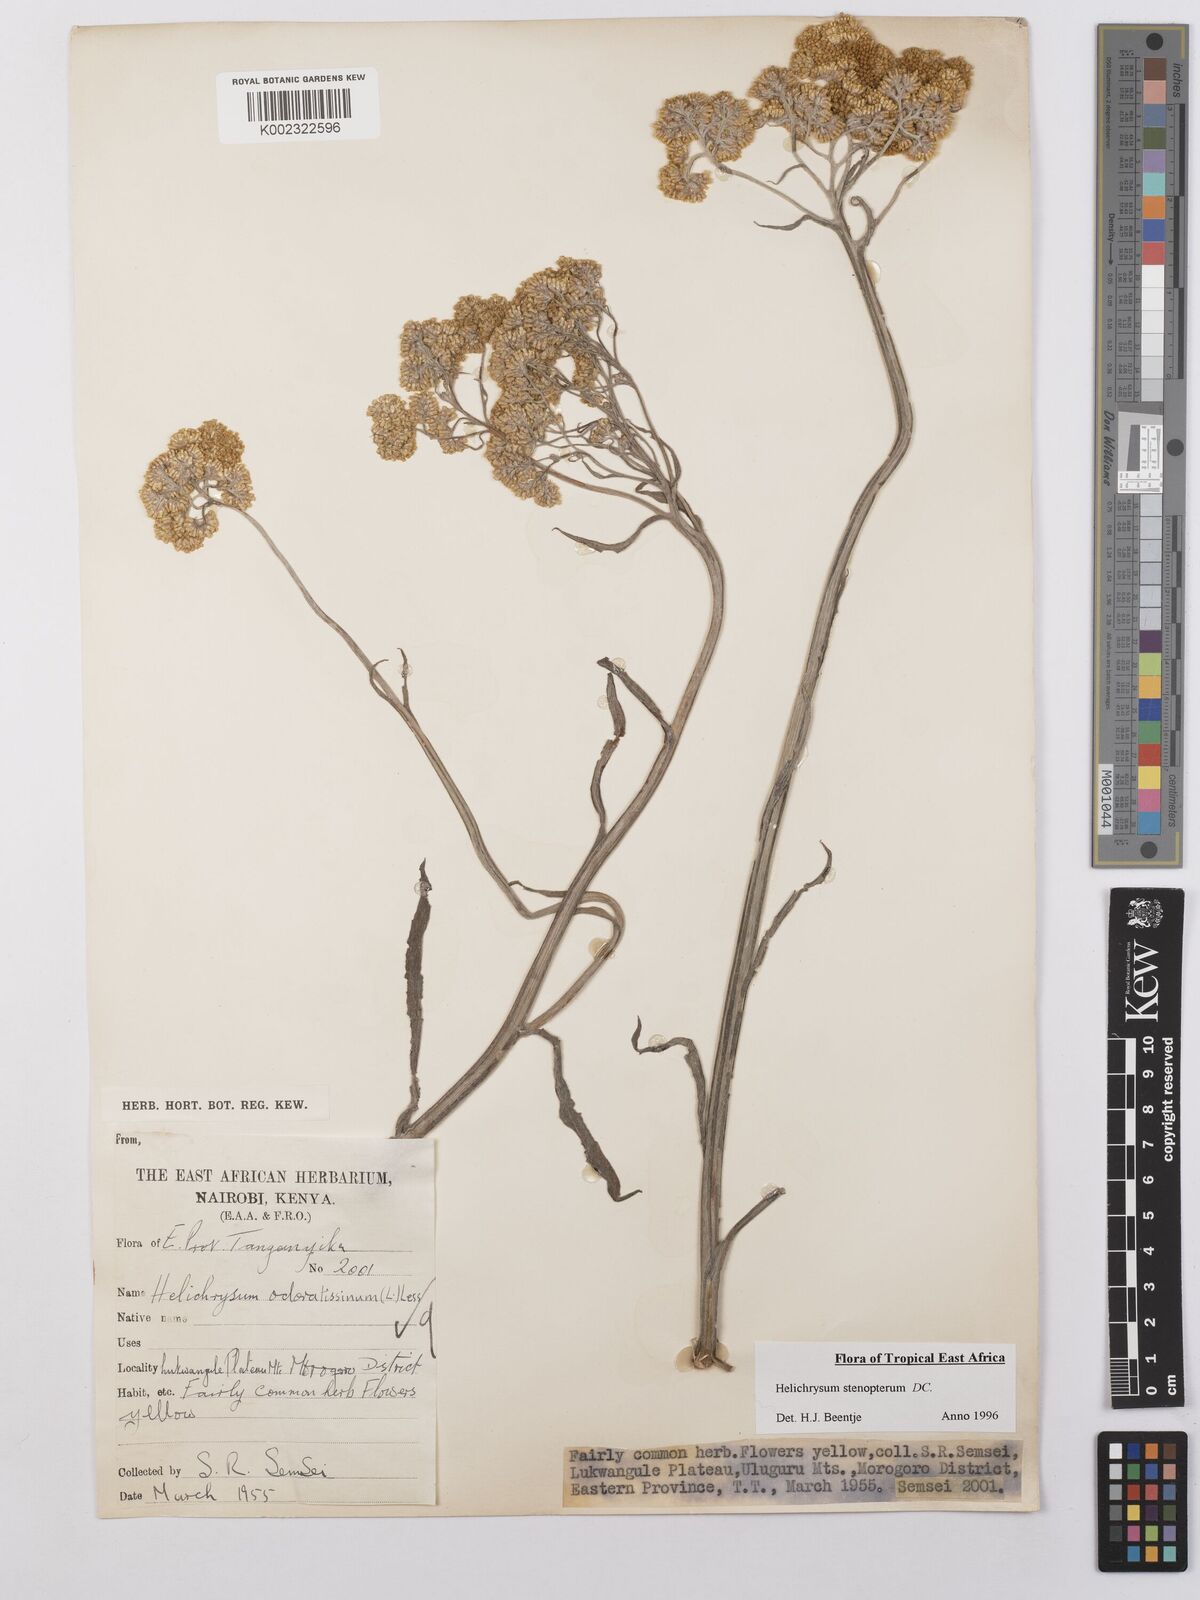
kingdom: Plantae
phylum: Tracheophyta
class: Magnoliopsida
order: Asterales
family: Asteraceae
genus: Helichrysum
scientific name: Helichrysum stenopterum
